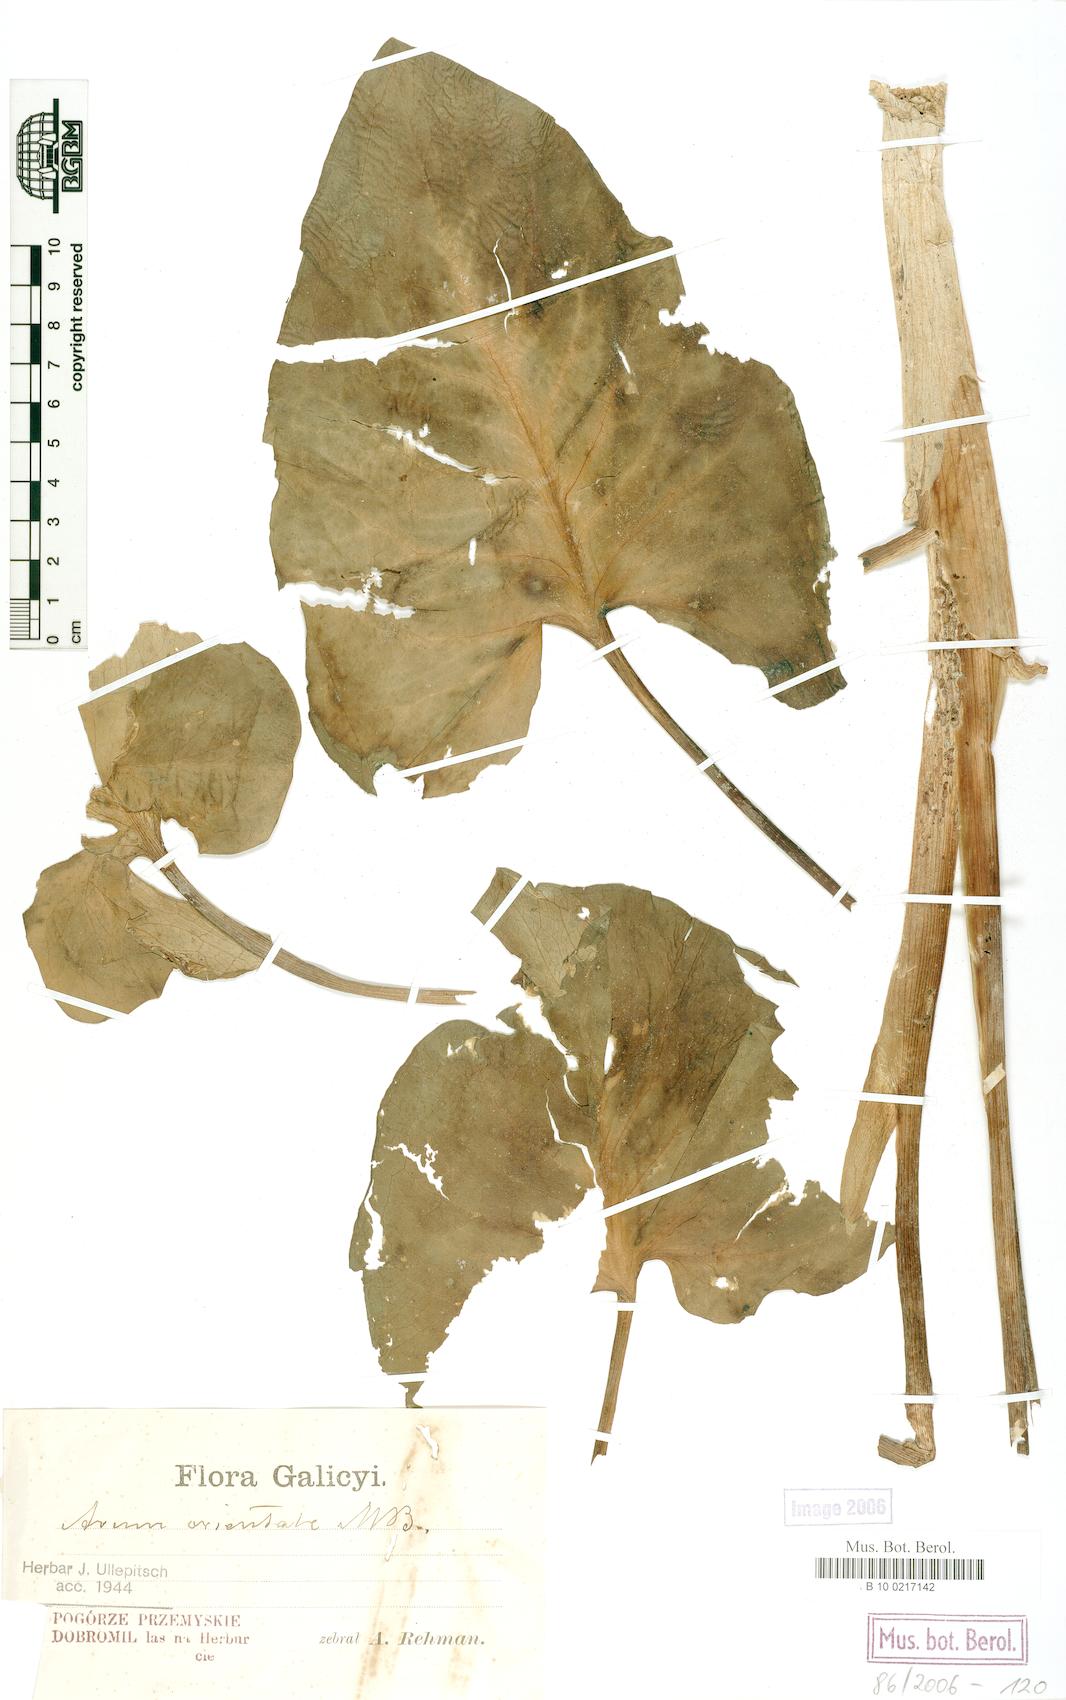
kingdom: Plantae
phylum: Tracheophyta
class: Liliopsida
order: Alismatales
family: Araceae
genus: Arum
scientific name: Arum orientale
